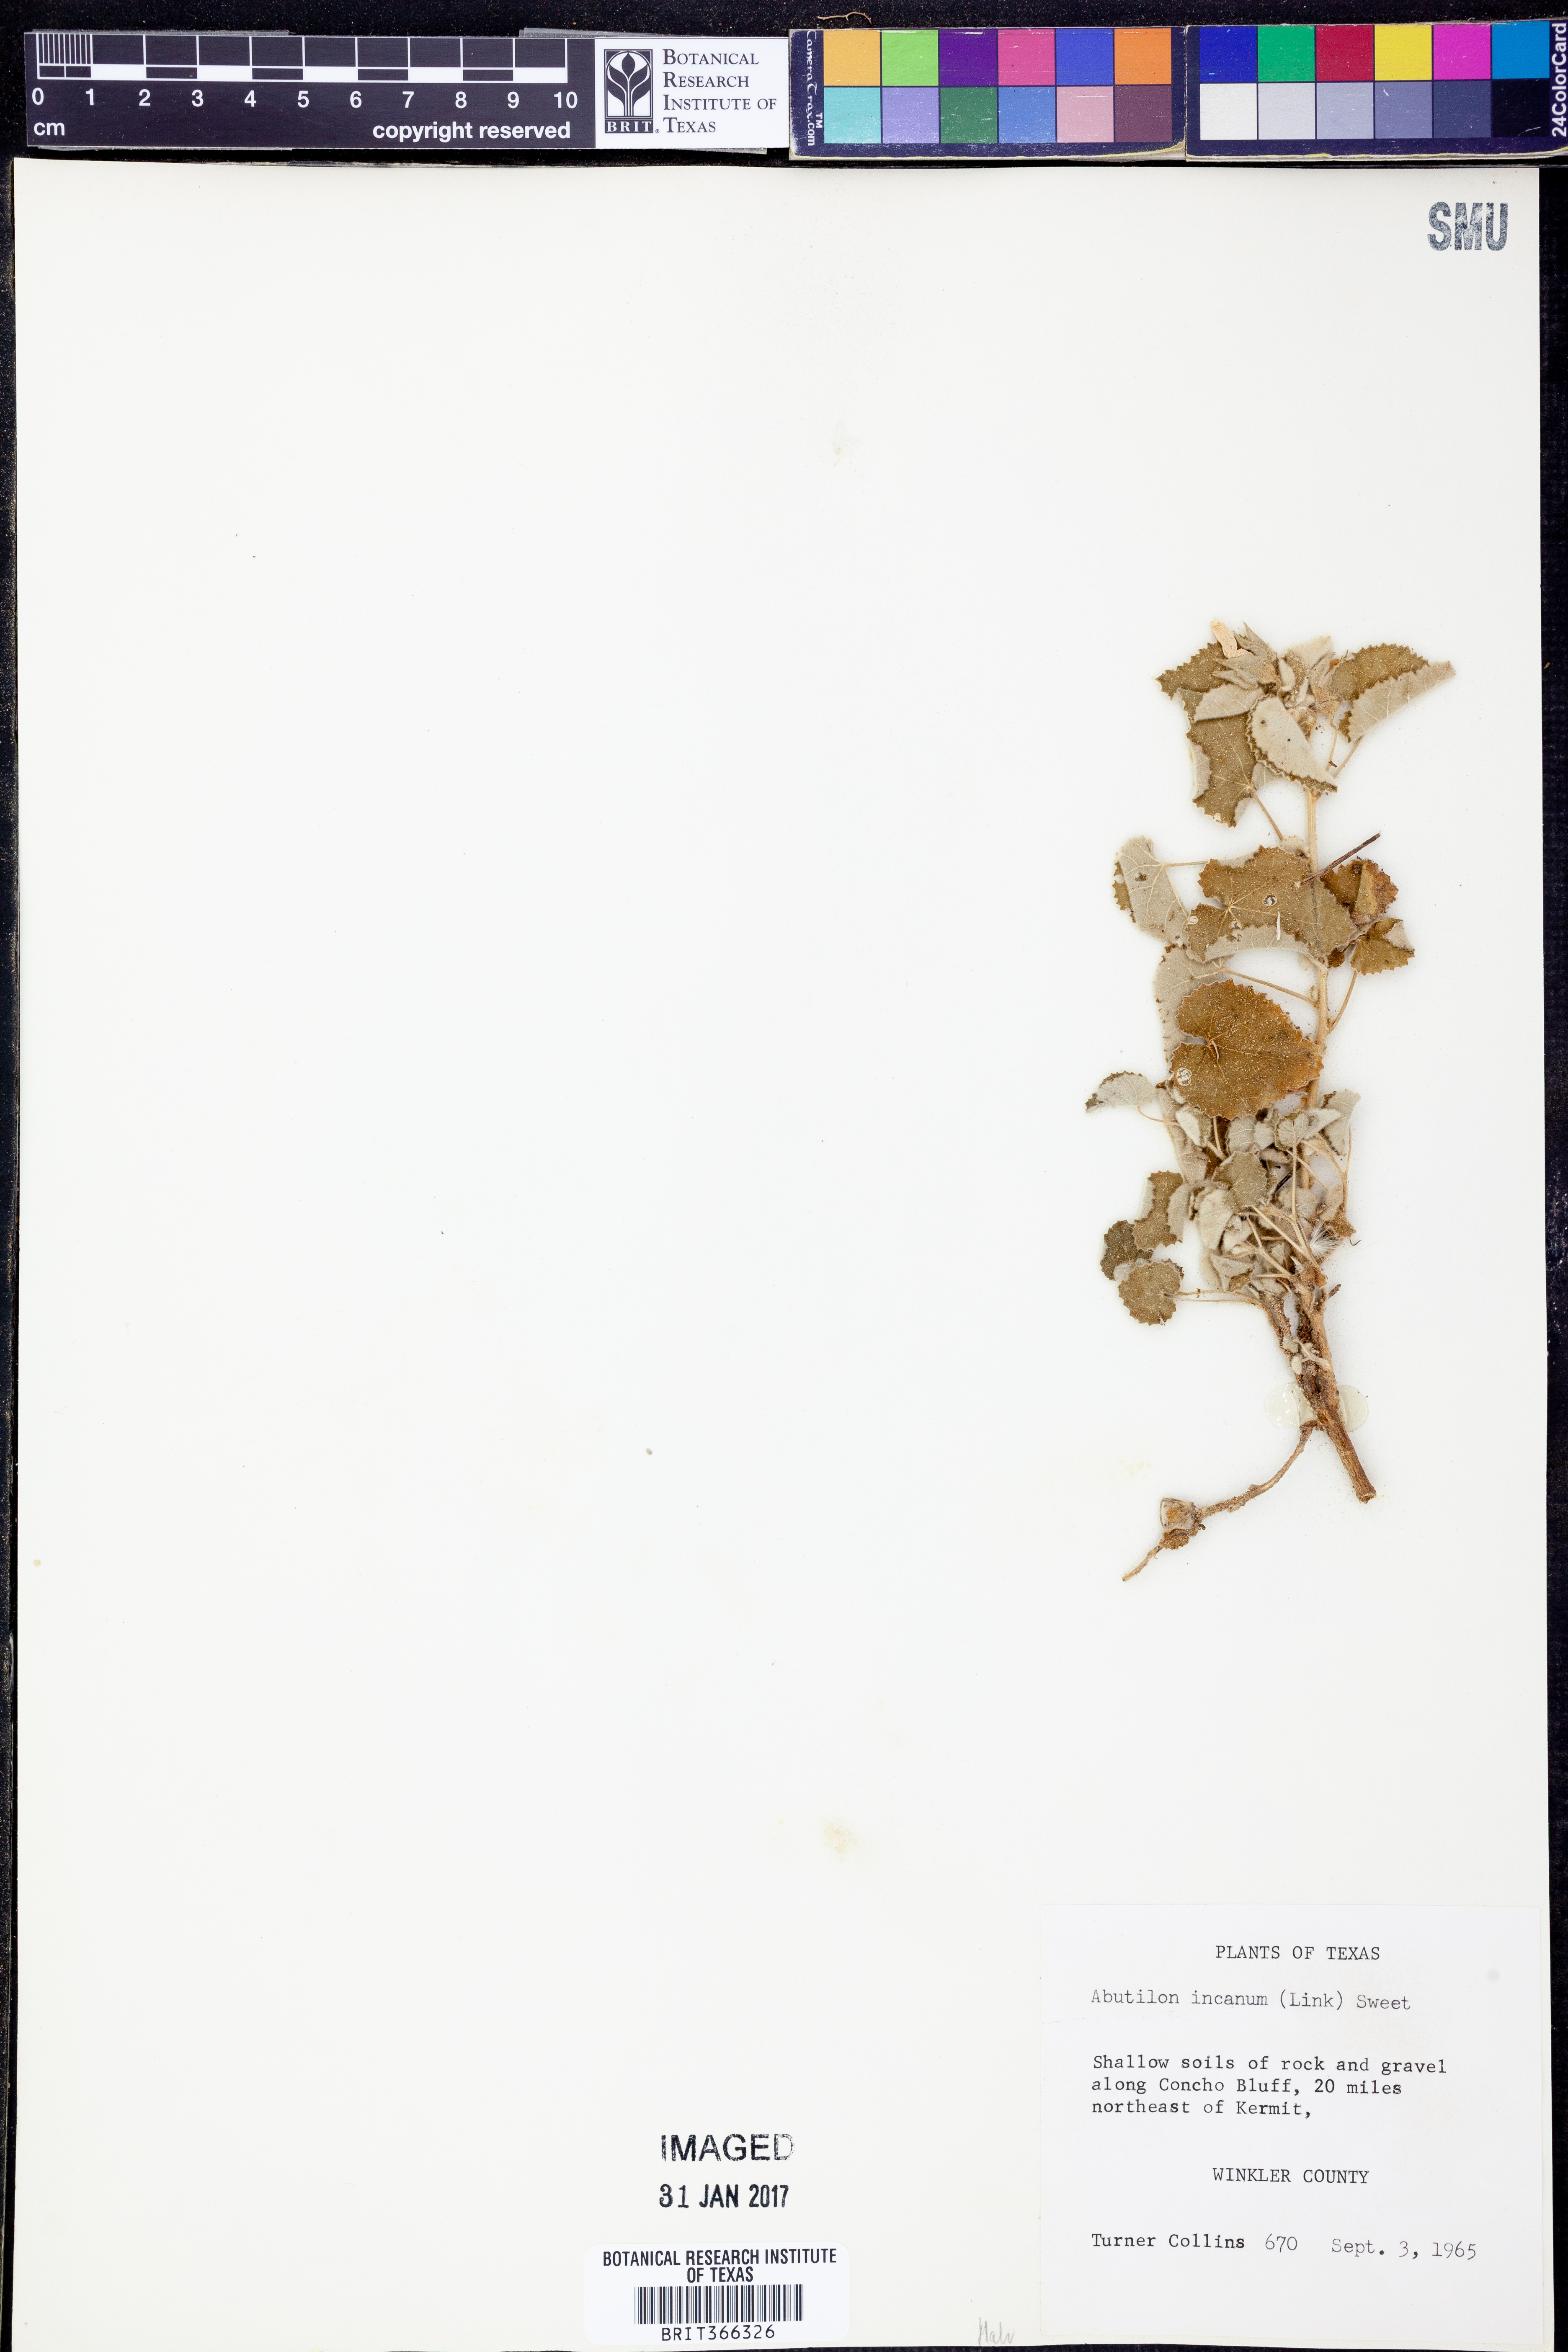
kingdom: Plantae
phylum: Tracheophyta
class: Magnoliopsida
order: Malvales
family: Malvaceae
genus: Abutilon
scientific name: Abutilon incanum
